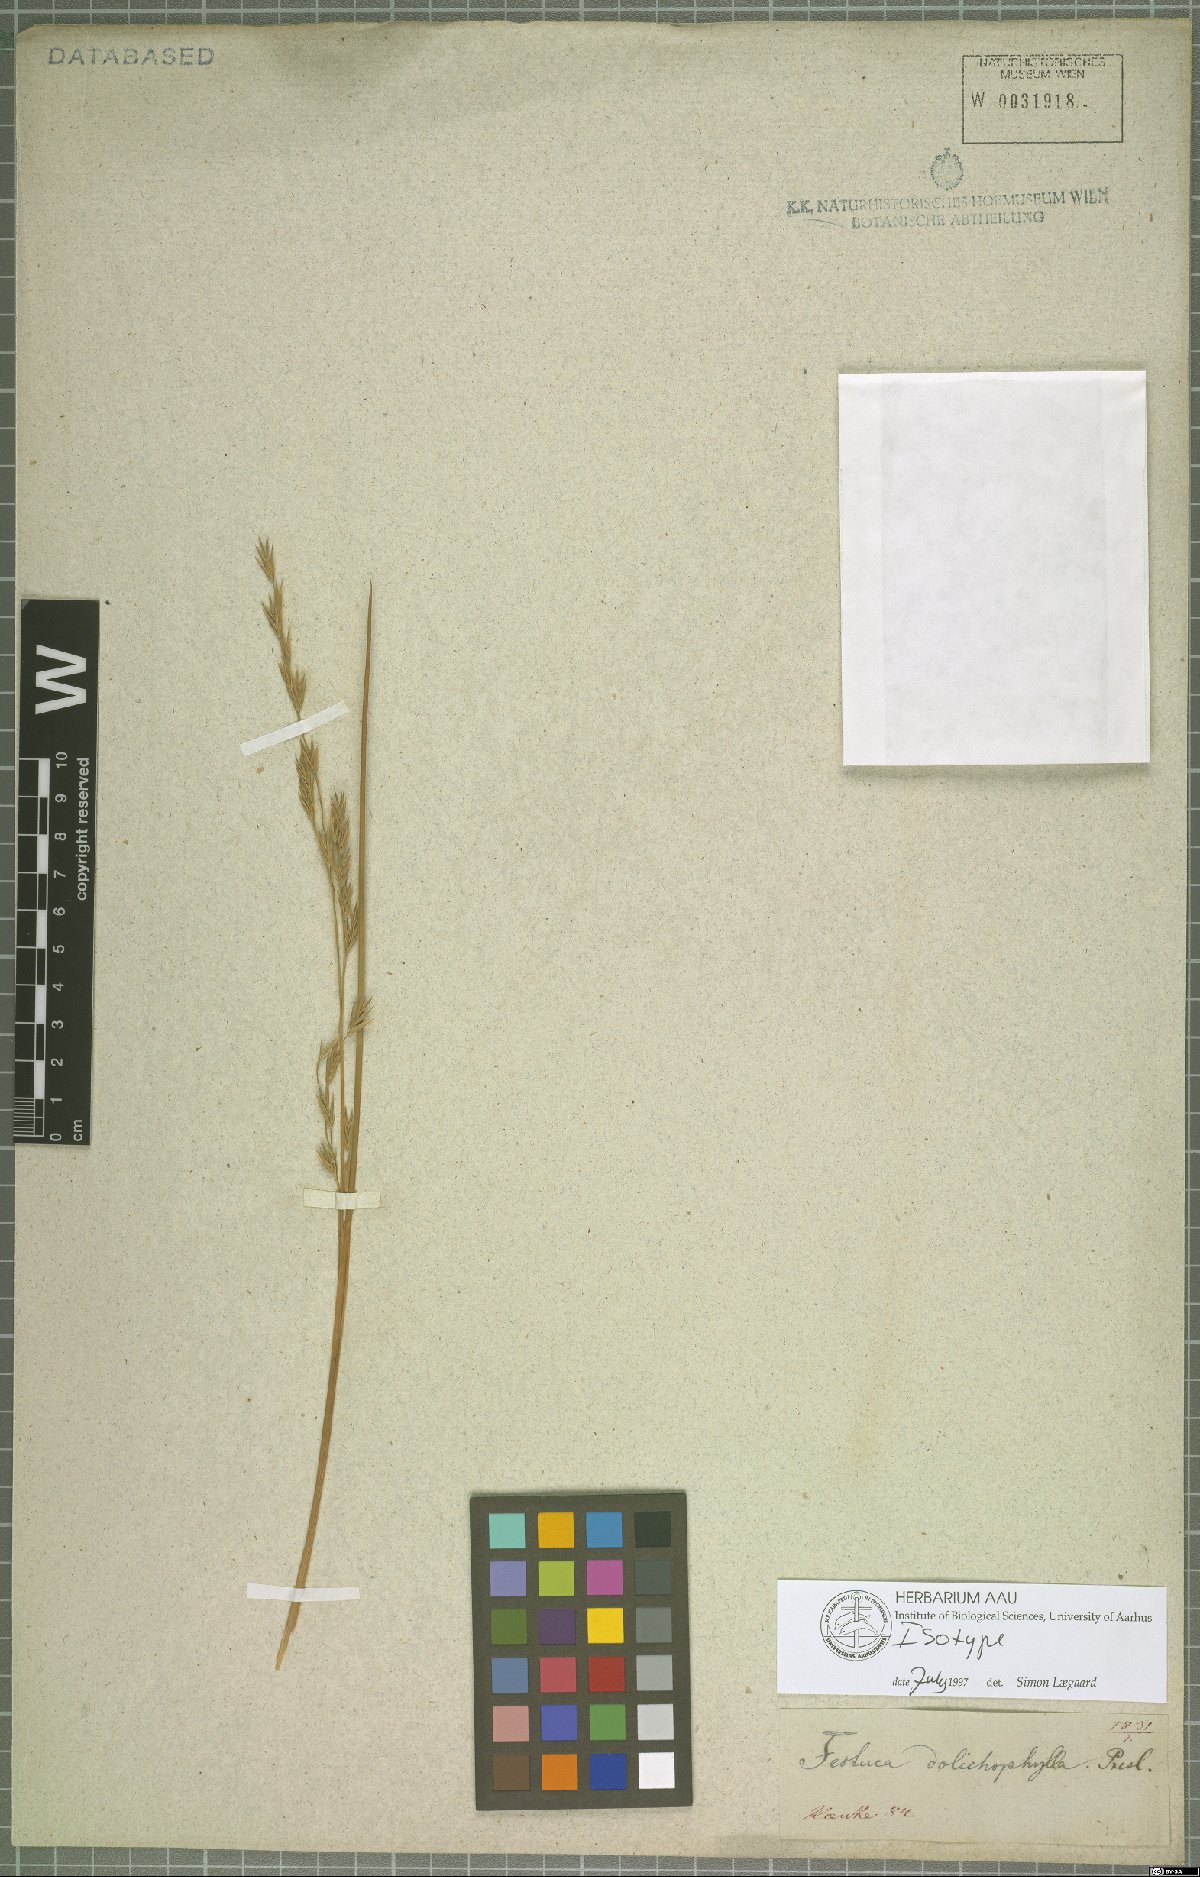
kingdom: Plantae
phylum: Tracheophyta
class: Liliopsida
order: Poales
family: Poaceae
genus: Festuca
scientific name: Festuca dolichophylla
